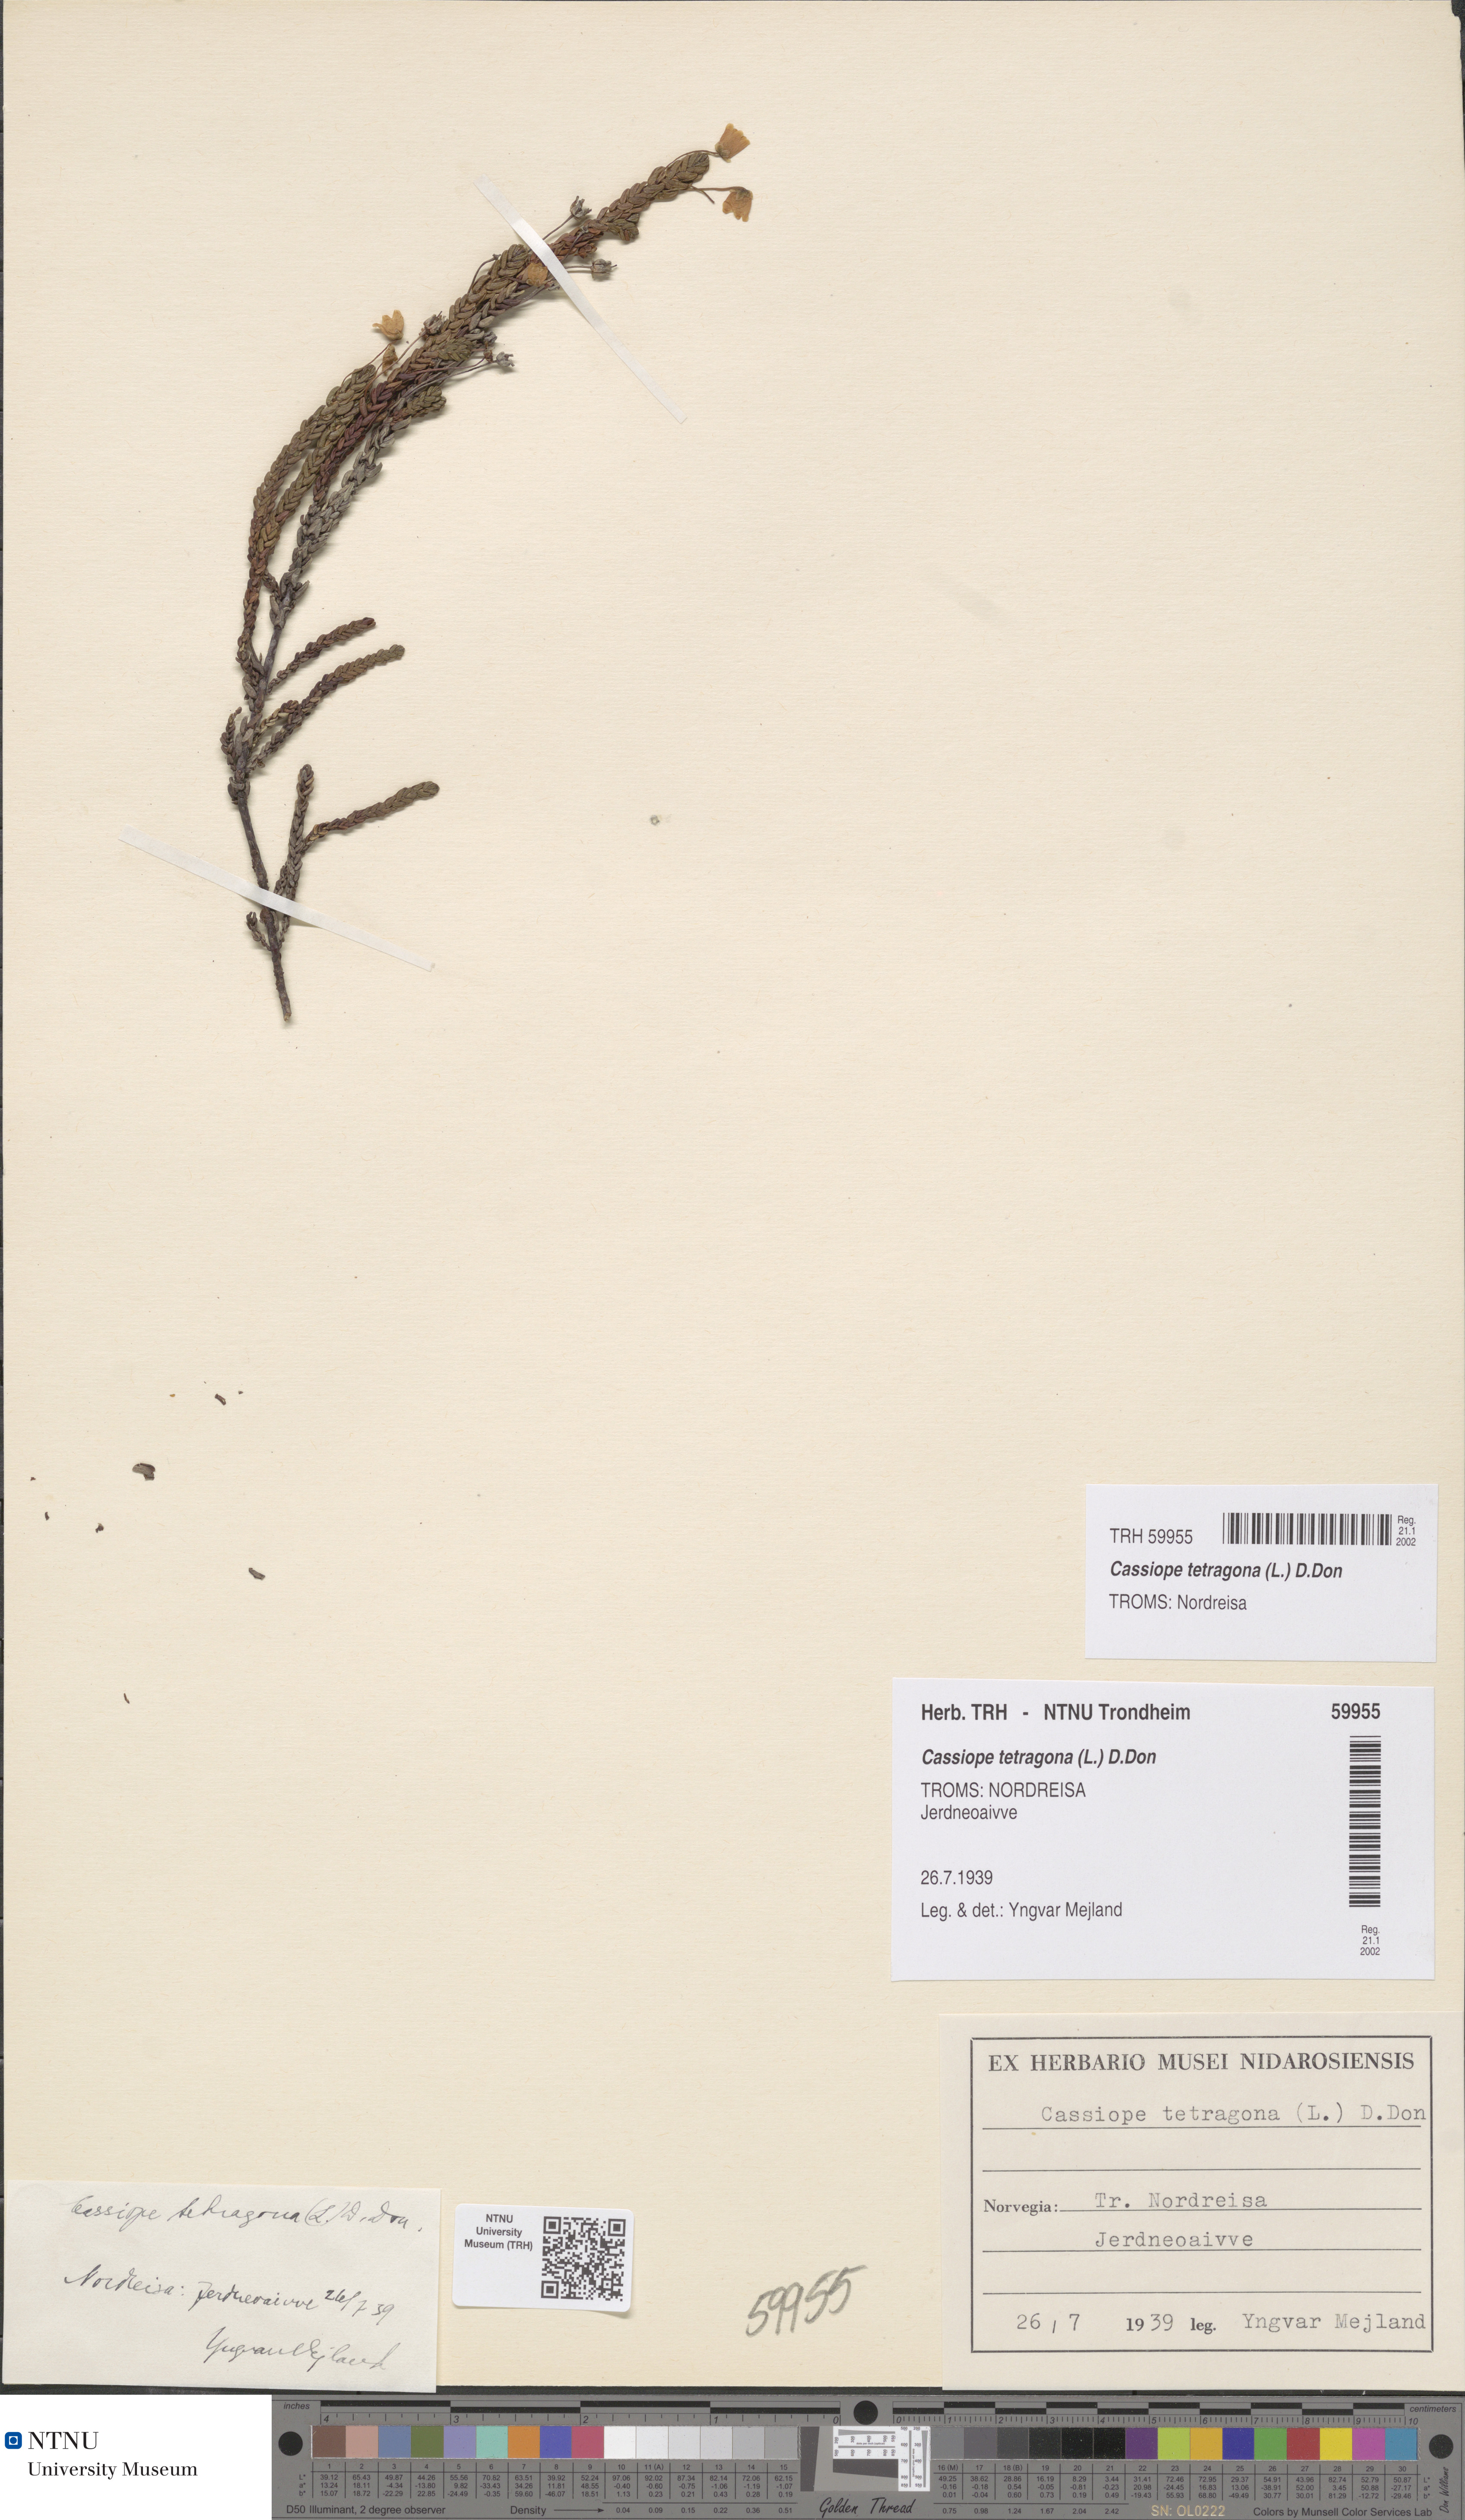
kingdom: Plantae
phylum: Tracheophyta
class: Magnoliopsida
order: Ericales
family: Ericaceae
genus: Cassiope
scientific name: Cassiope tetragona
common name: Arctic bell heather
